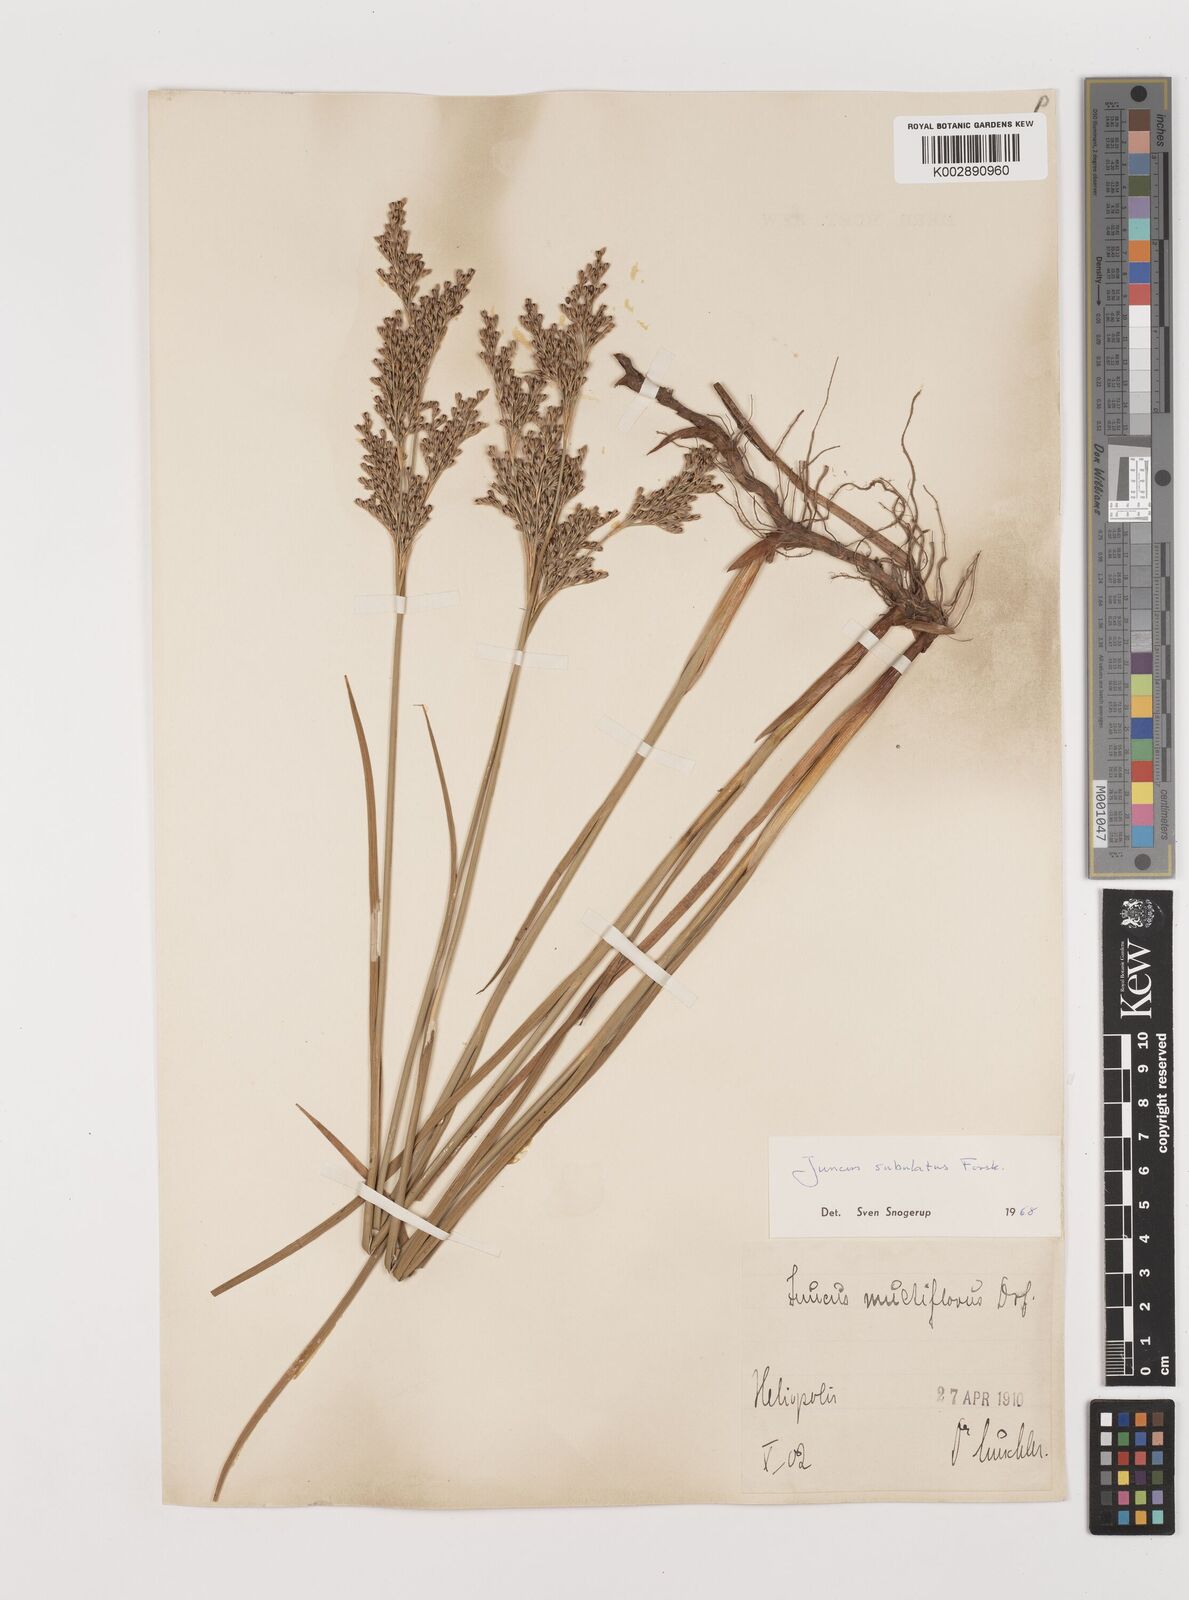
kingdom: Plantae
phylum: Tracheophyta
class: Liliopsida
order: Poales
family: Juncaceae
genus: Juncus
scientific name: Juncus subulatus
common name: Somerset rush
